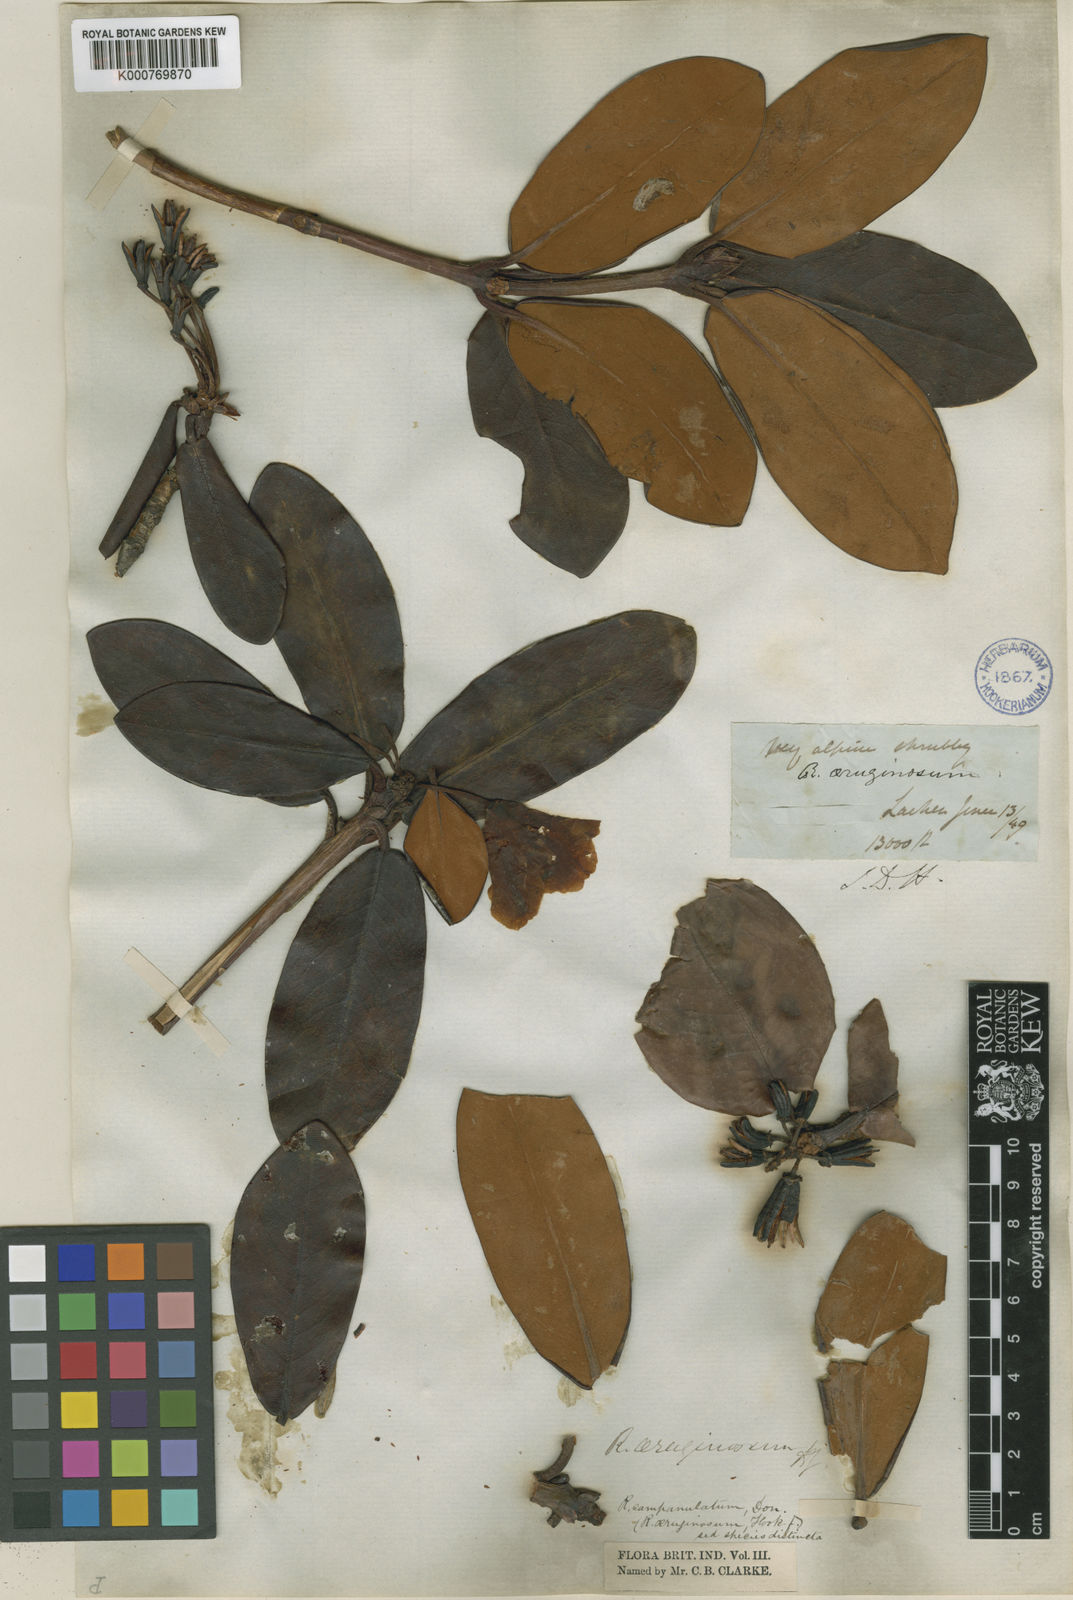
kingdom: Plantae
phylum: Tracheophyta
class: Magnoliopsida
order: Ericales
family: Ericaceae
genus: Rhododendron
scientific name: Rhododendron campanulatum
